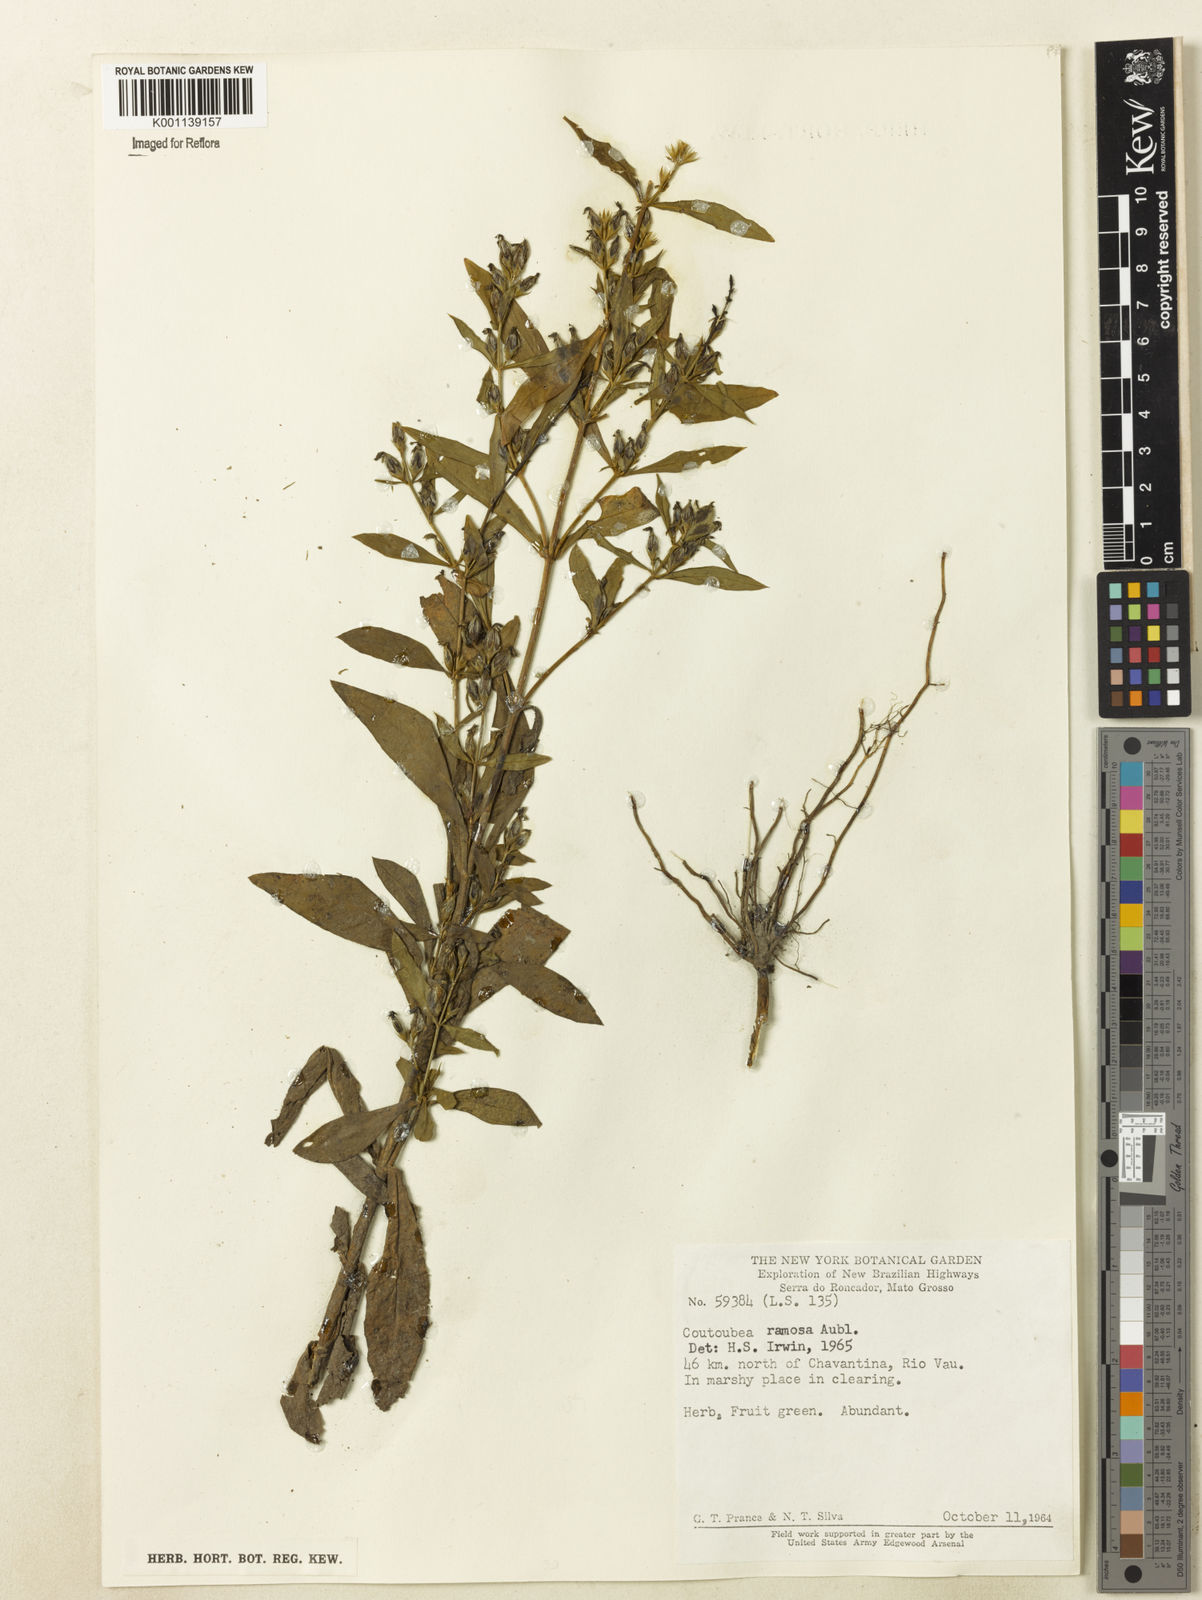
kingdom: Plantae
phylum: Tracheophyta
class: Magnoliopsida
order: Gentianales
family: Gentianaceae
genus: Coutoubea
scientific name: Coutoubea ramosa
